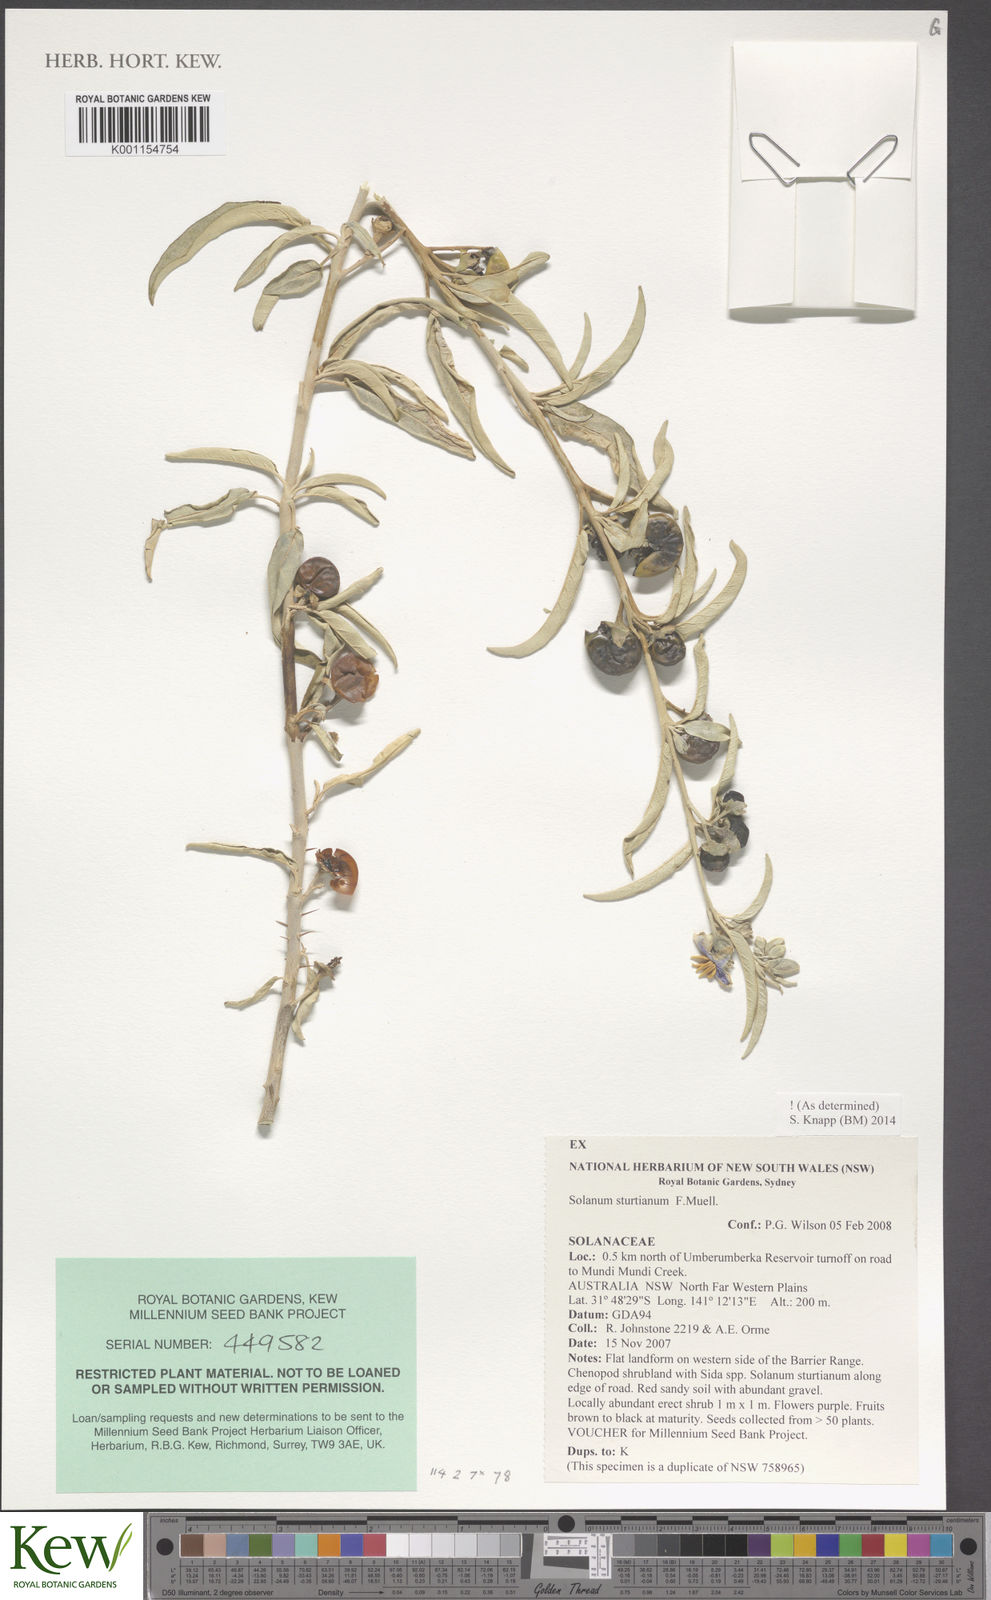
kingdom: Plantae
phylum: Tracheophyta
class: Magnoliopsida
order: Solanales
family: Solanaceae
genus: Solanum
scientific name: Solanum sturtianum
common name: Thargomindah nightshade
